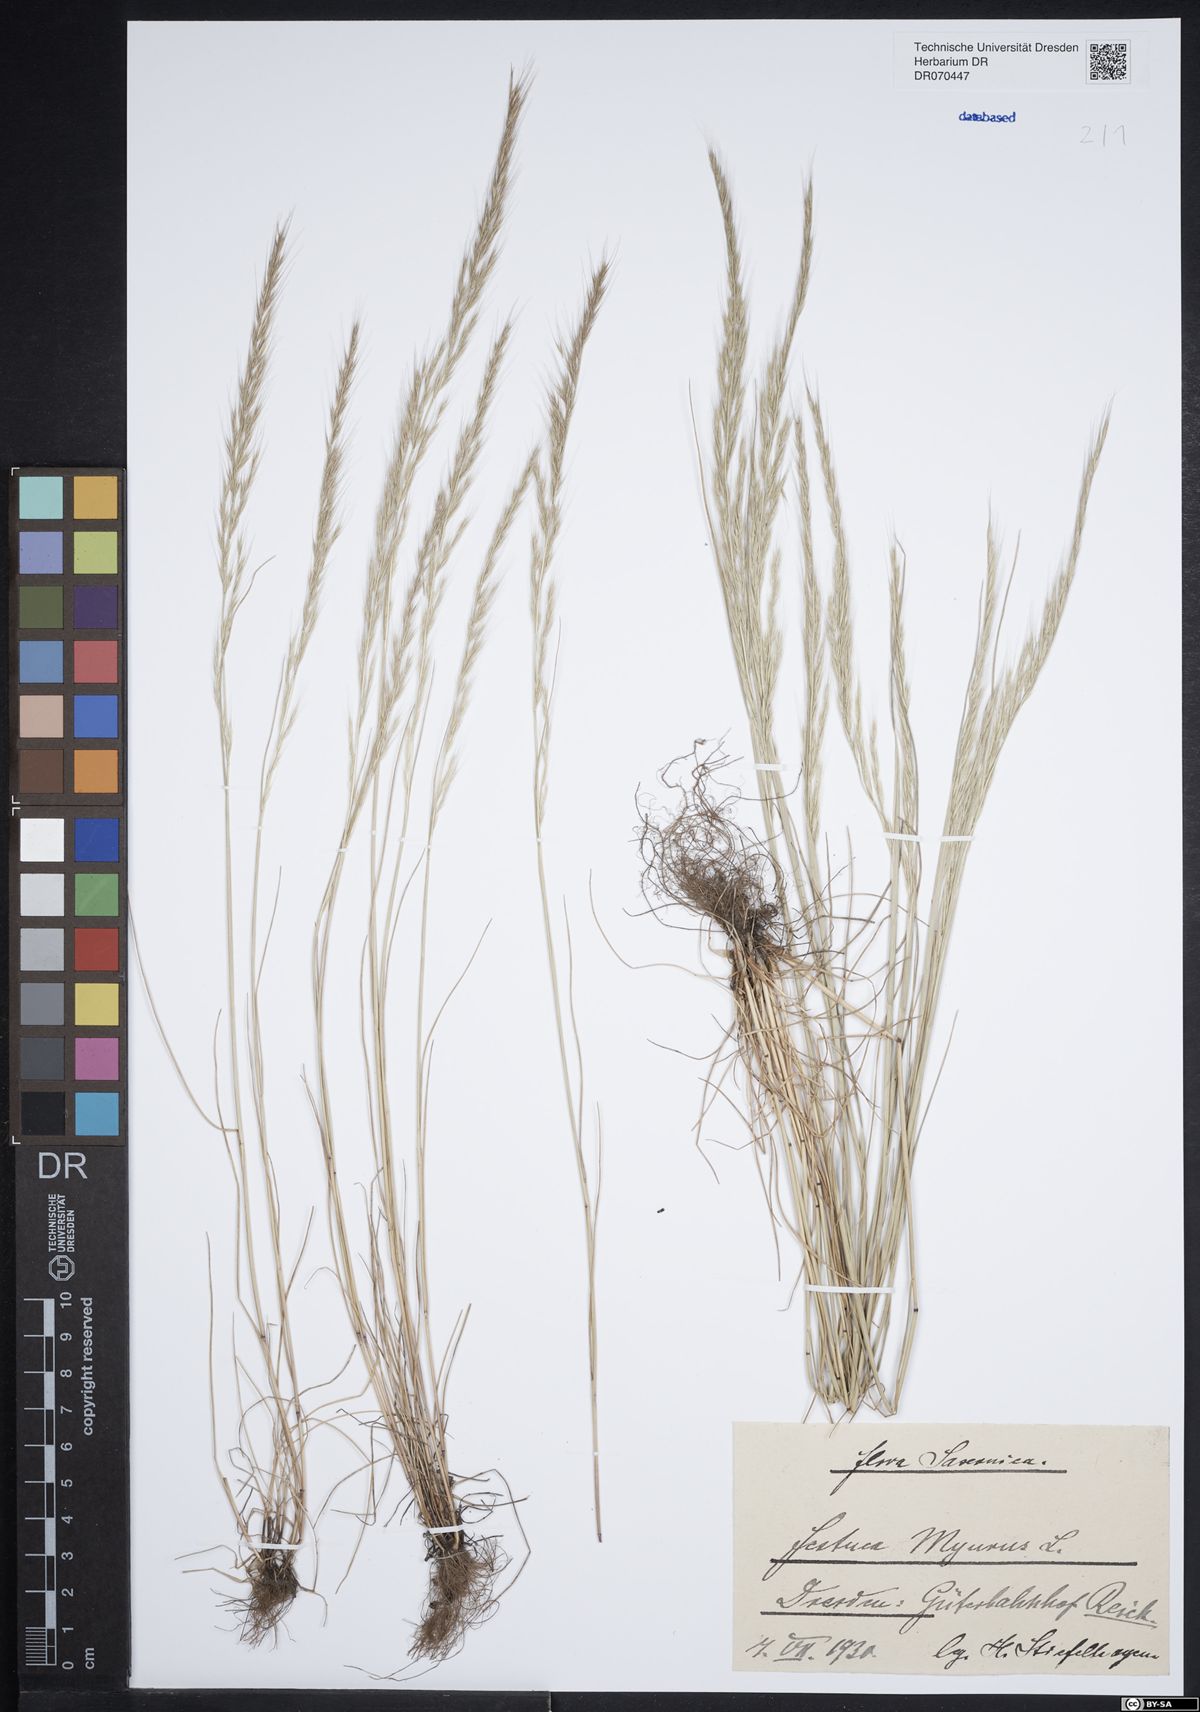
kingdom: Plantae
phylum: Tracheophyta
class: Liliopsida
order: Poales
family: Poaceae
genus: Festuca
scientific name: Festuca myuros
